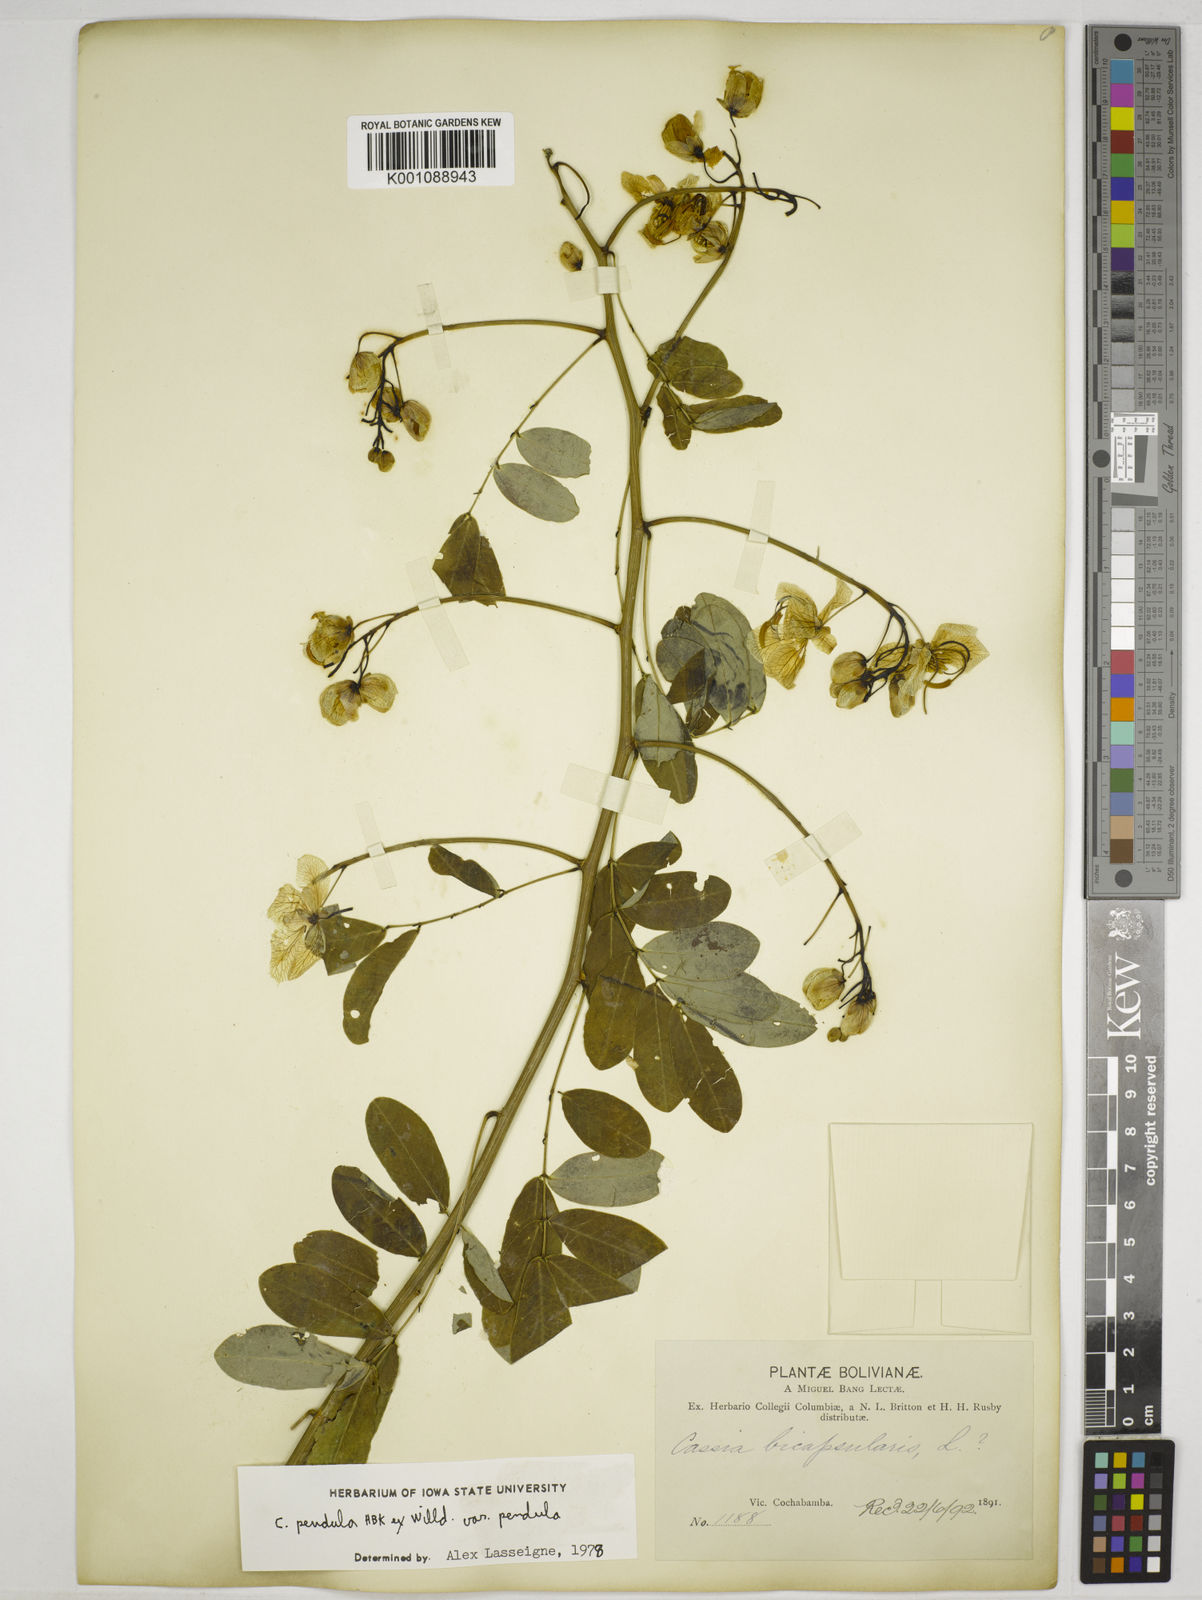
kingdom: Plantae
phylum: Tracheophyta
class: Magnoliopsida
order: Fabales
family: Fabaceae
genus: Senna
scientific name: Senna pendula
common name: Easter cassia
